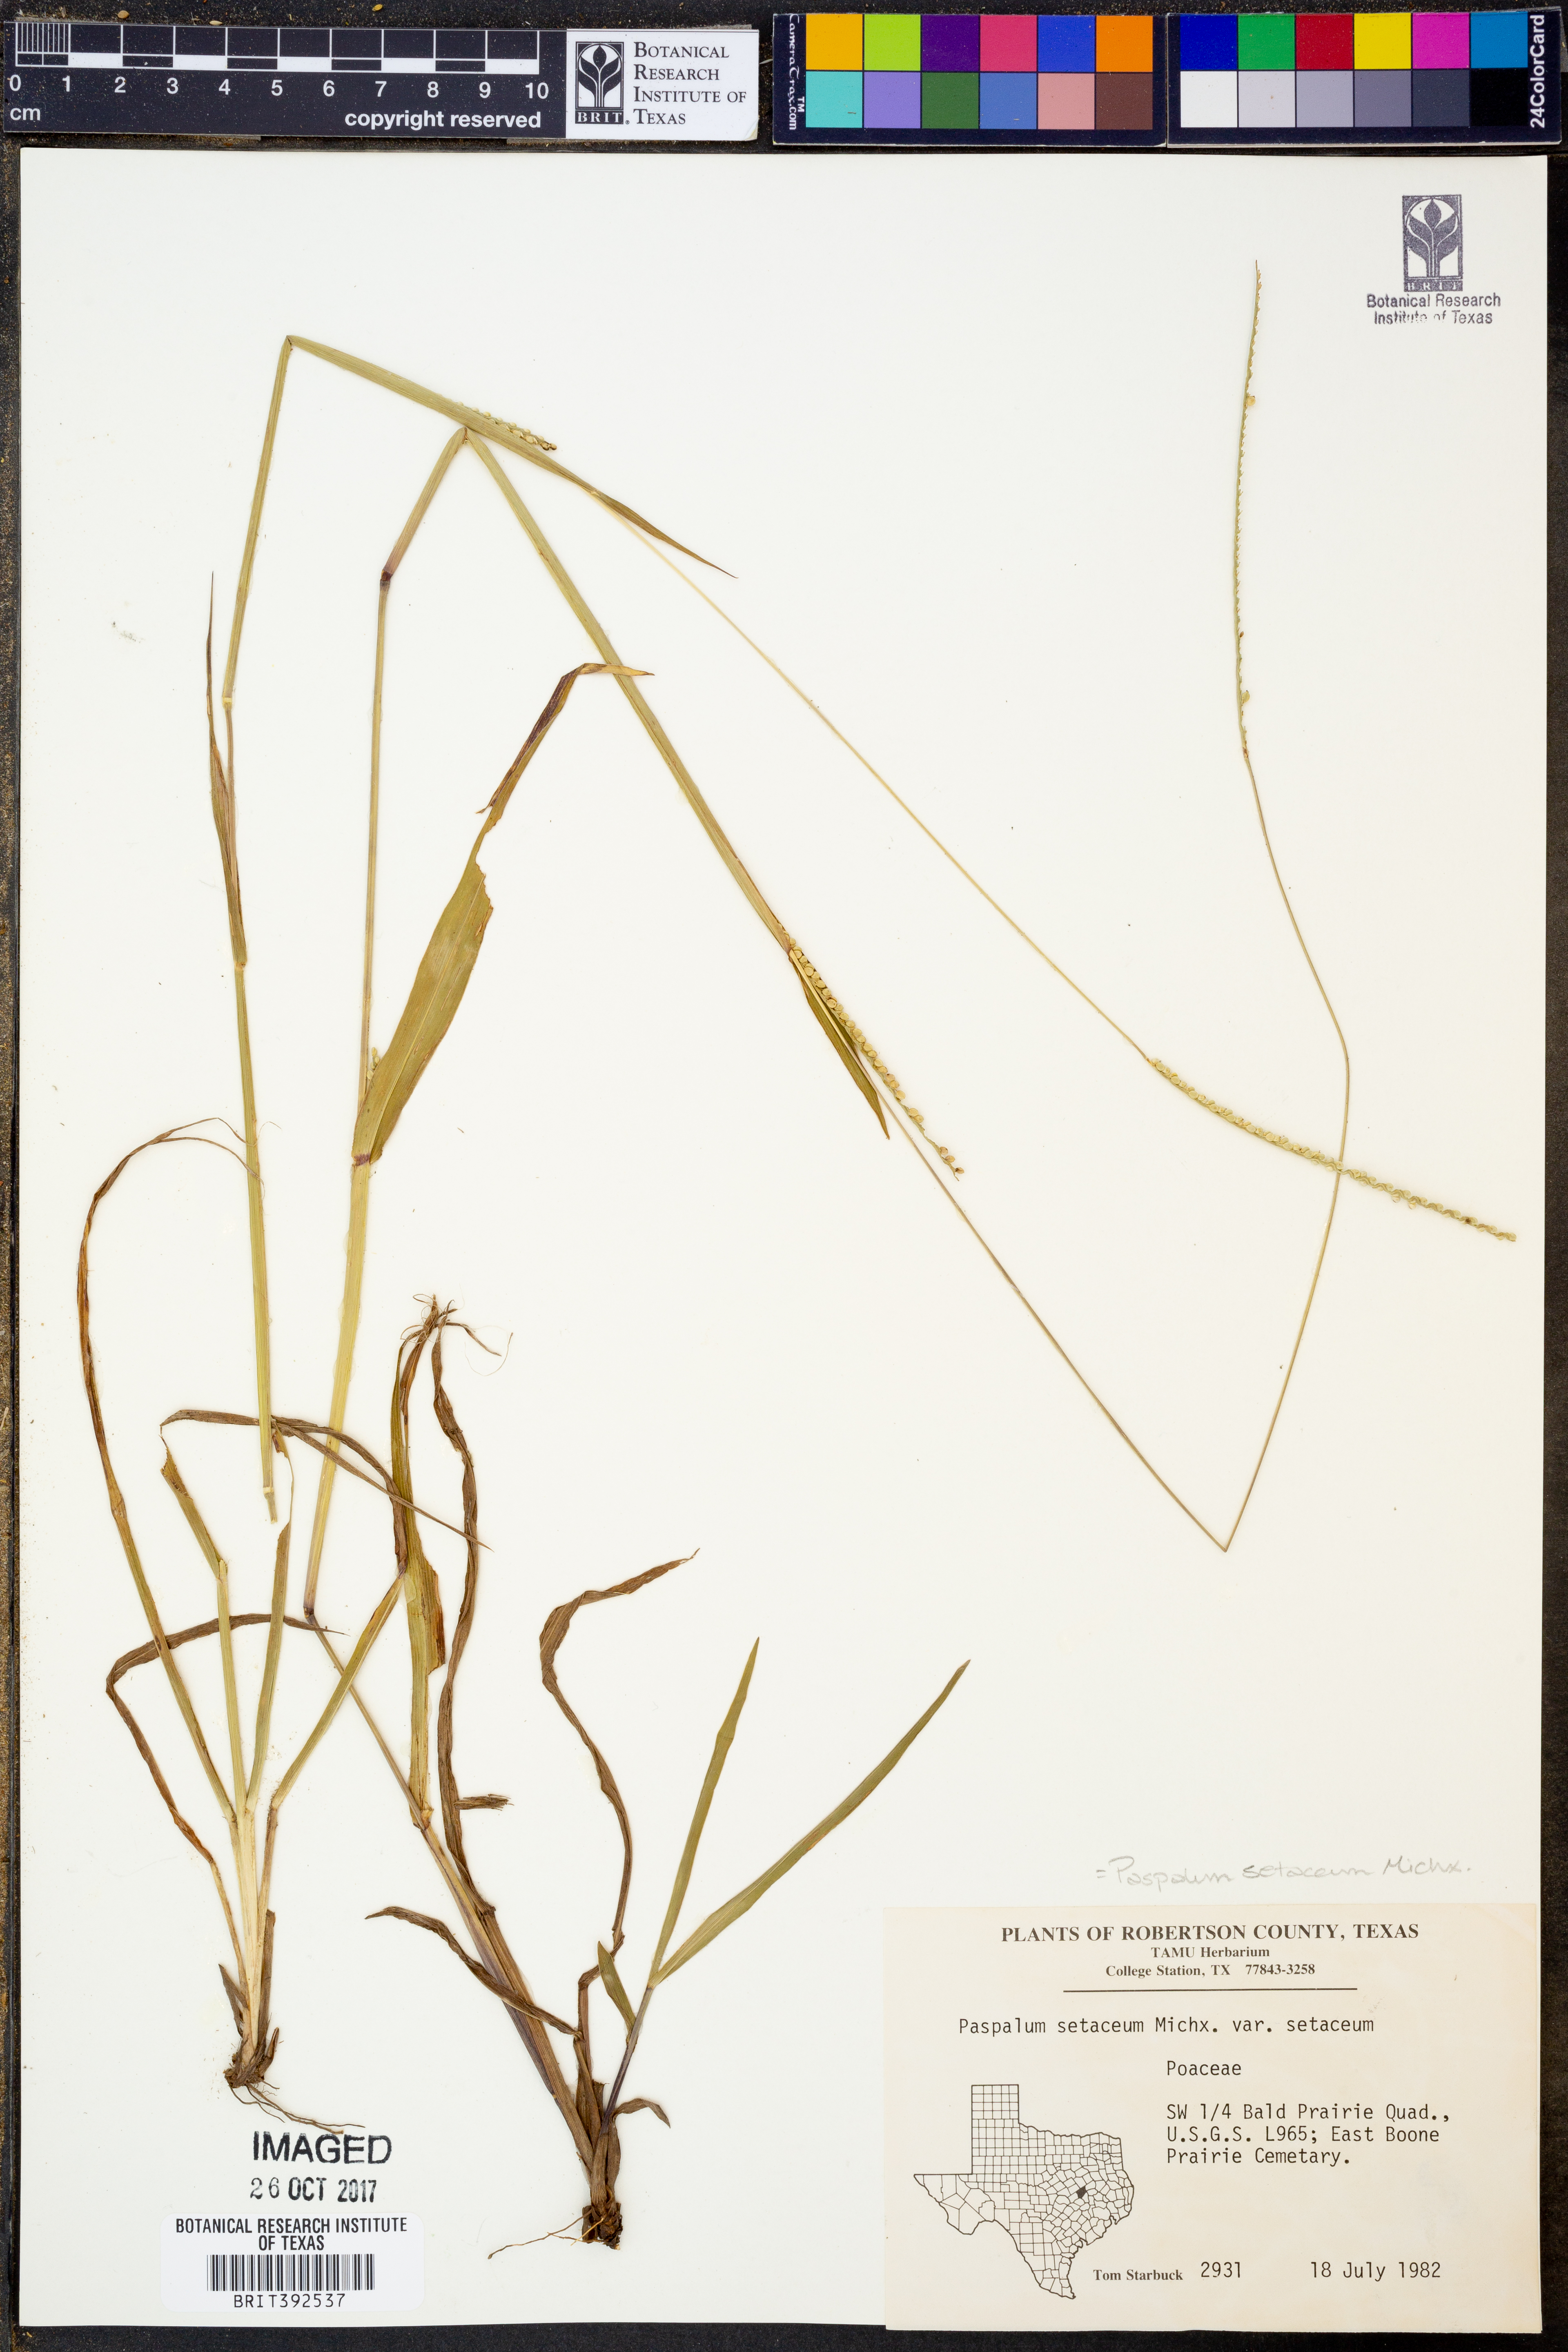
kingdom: Plantae
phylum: Tracheophyta
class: Liliopsida
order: Poales
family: Poaceae
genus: Paspalum
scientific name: Paspalum setaceum
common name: Slender paspalum
